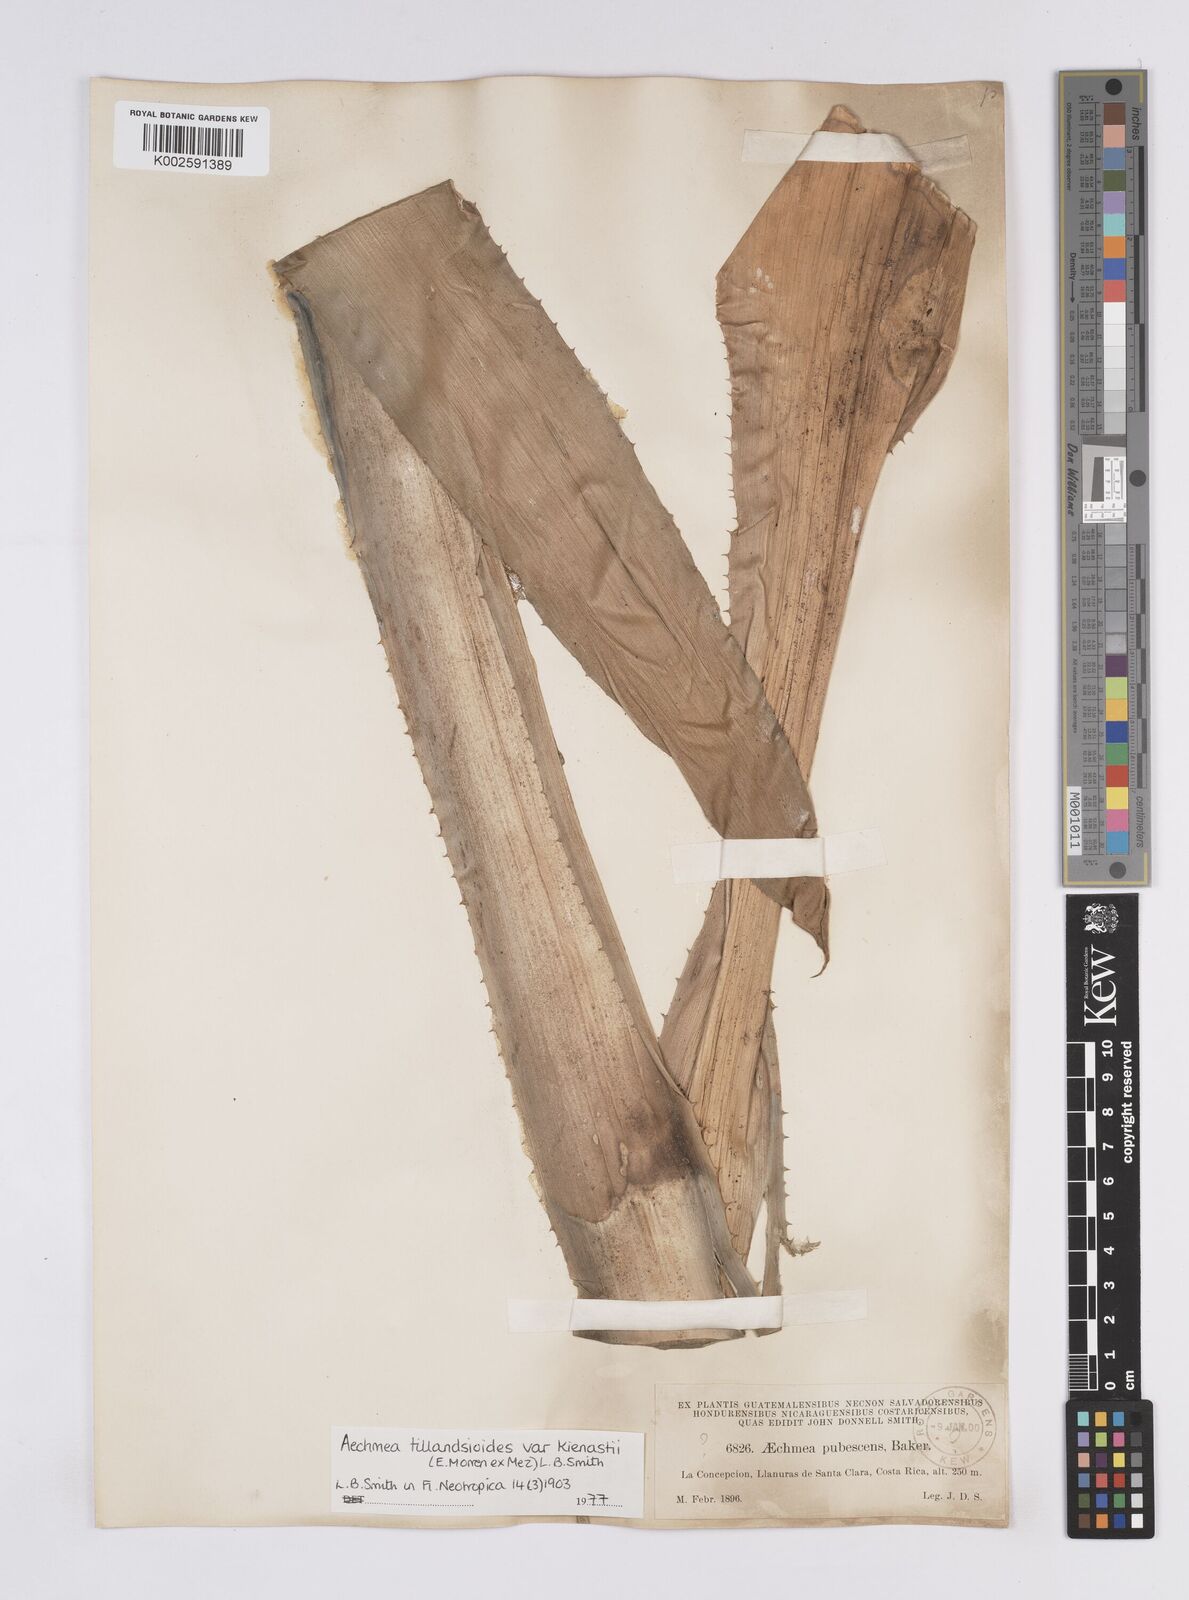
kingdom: Plantae
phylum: Tracheophyta
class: Liliopsida
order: Poales
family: Bromeliaceae
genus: Aechmea
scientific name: Aechmea tillandsioides
